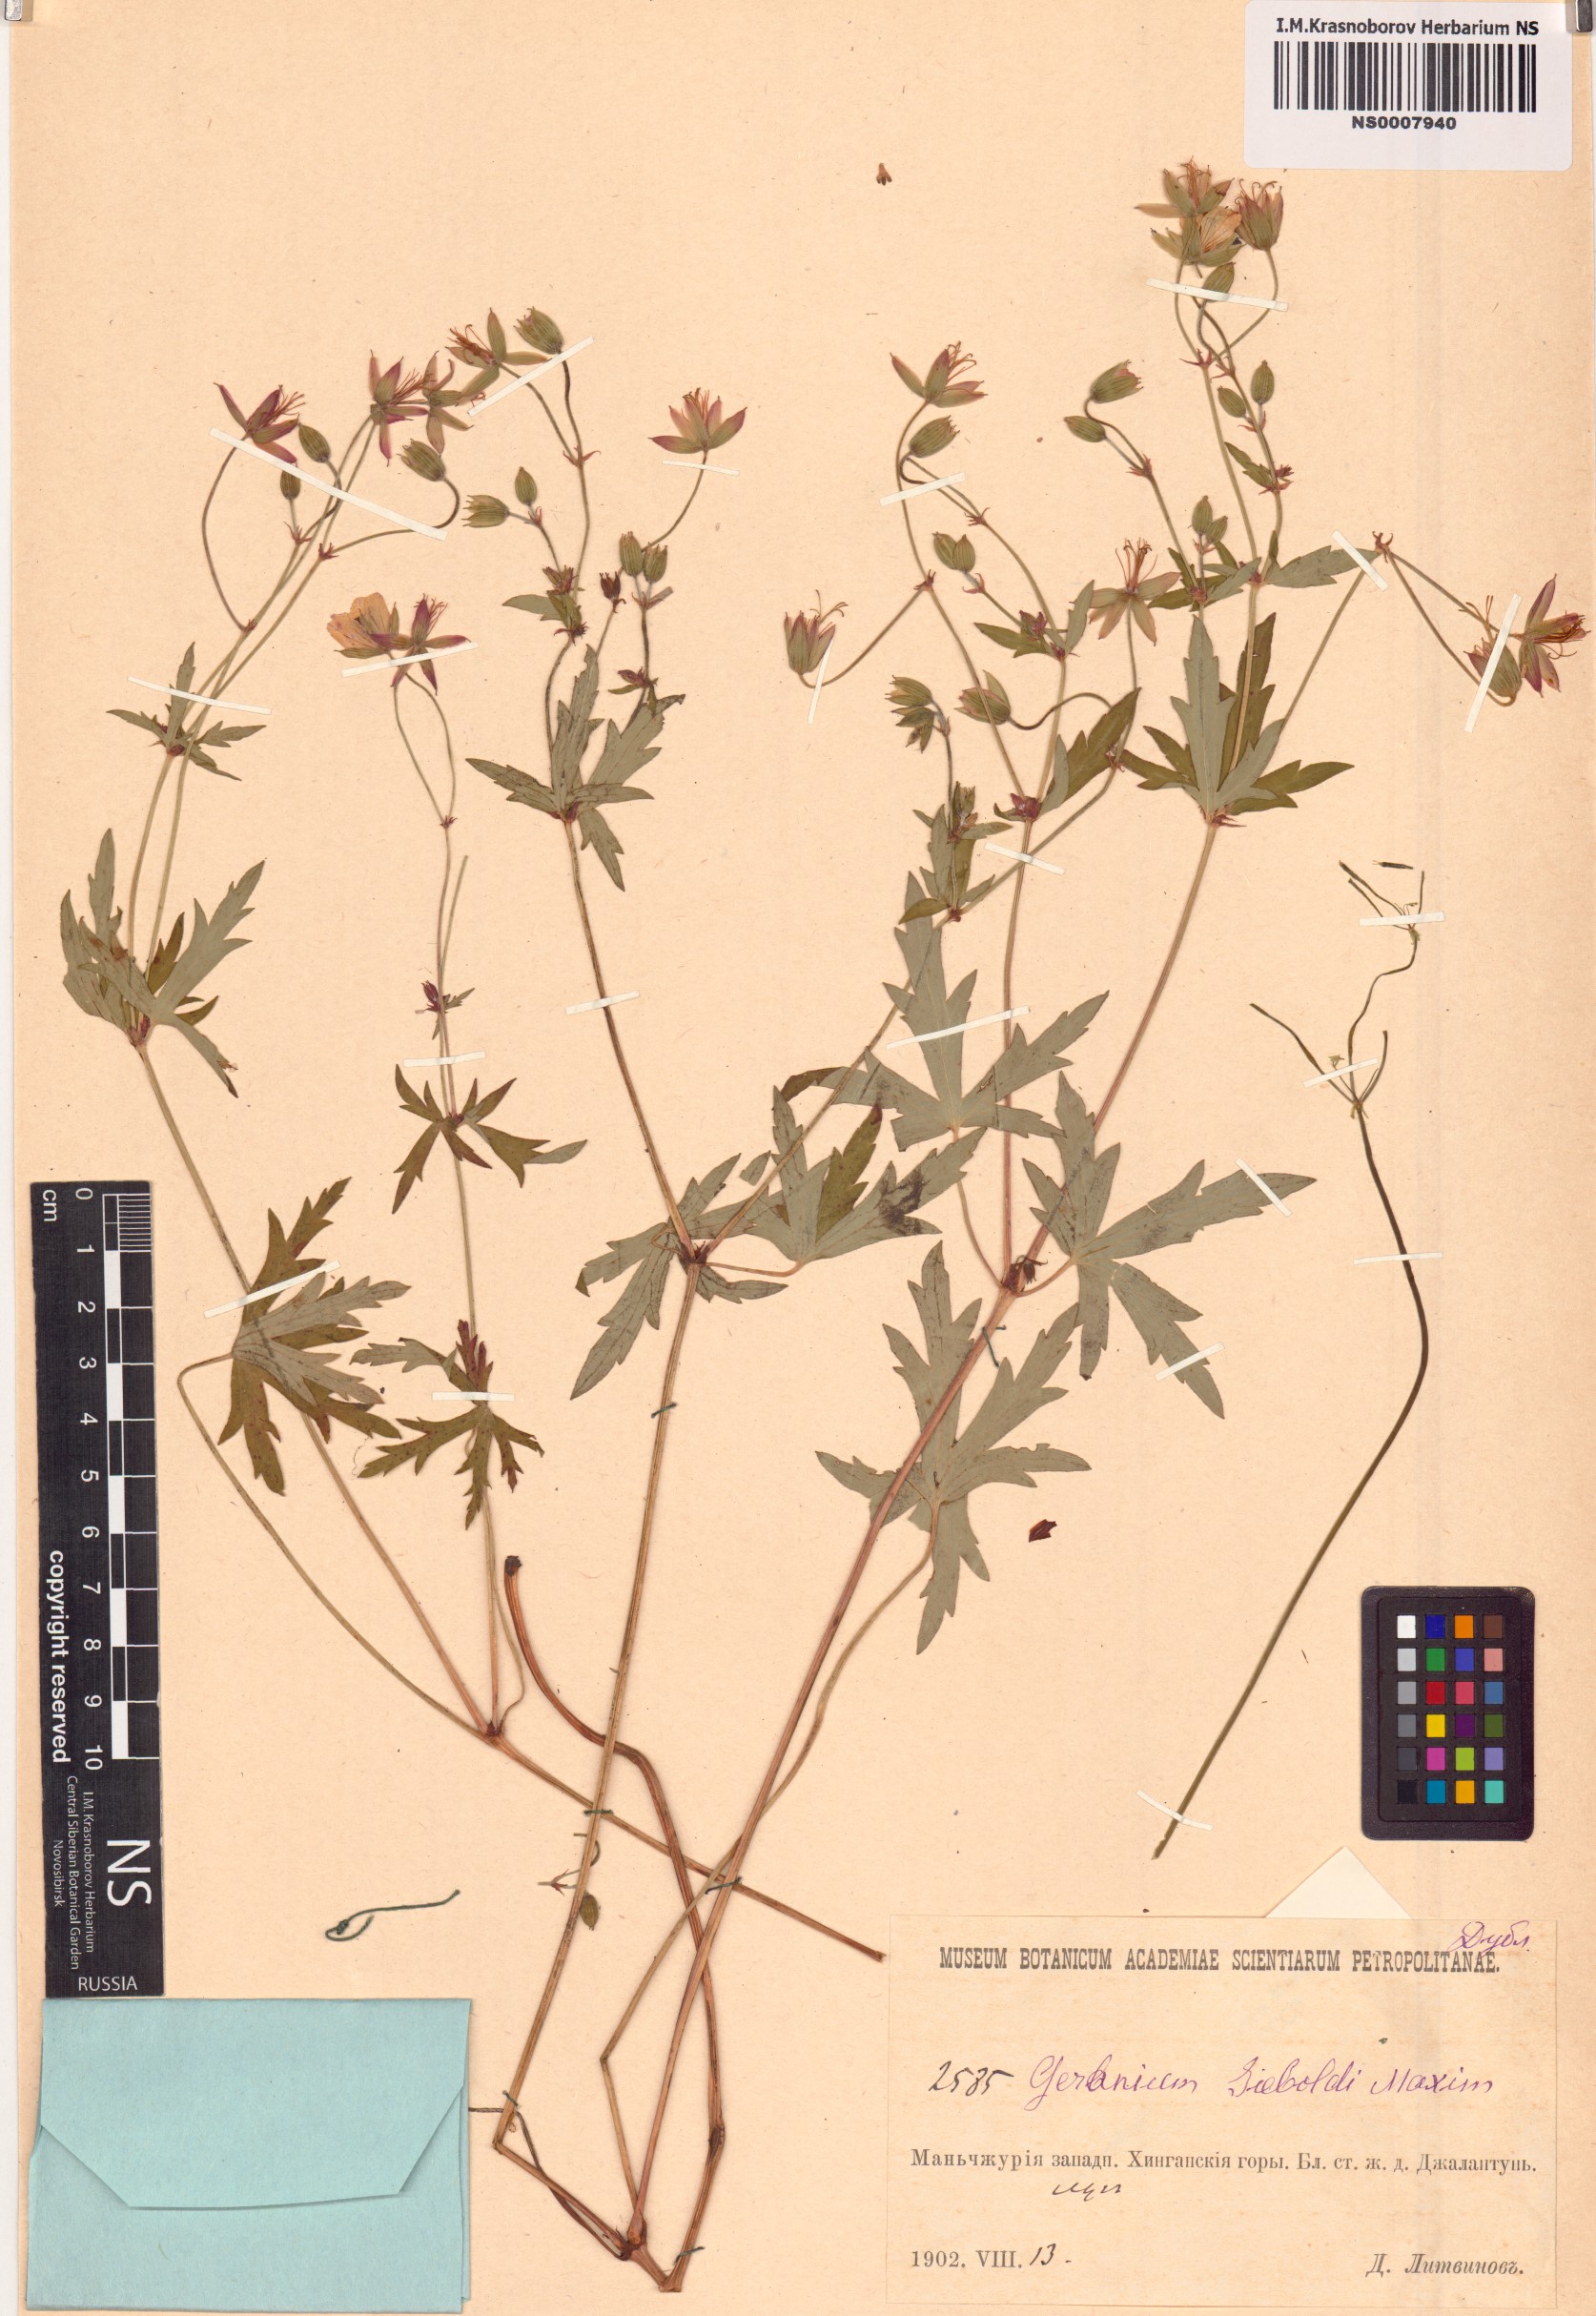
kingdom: Plantae
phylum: Tracheophyta
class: Magnoliopsida
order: Geraniales
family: Geraniaceae
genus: Geranium
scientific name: Geranium krameri
